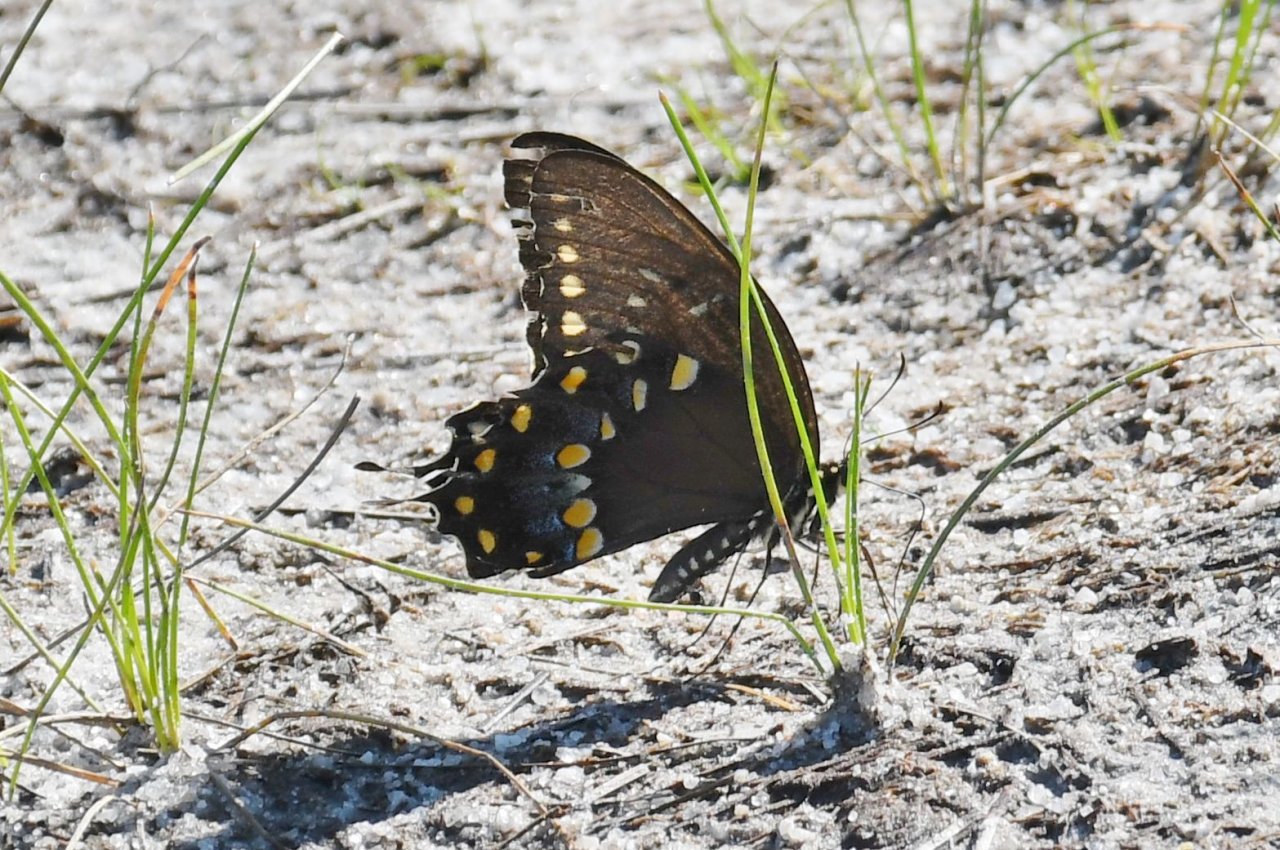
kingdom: Animalia
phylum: Arthropoda
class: Insecta
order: Lepidoptera
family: Papilionidae
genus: Pterourus
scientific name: Pterourus troilus
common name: Spicebush Swallowtail
